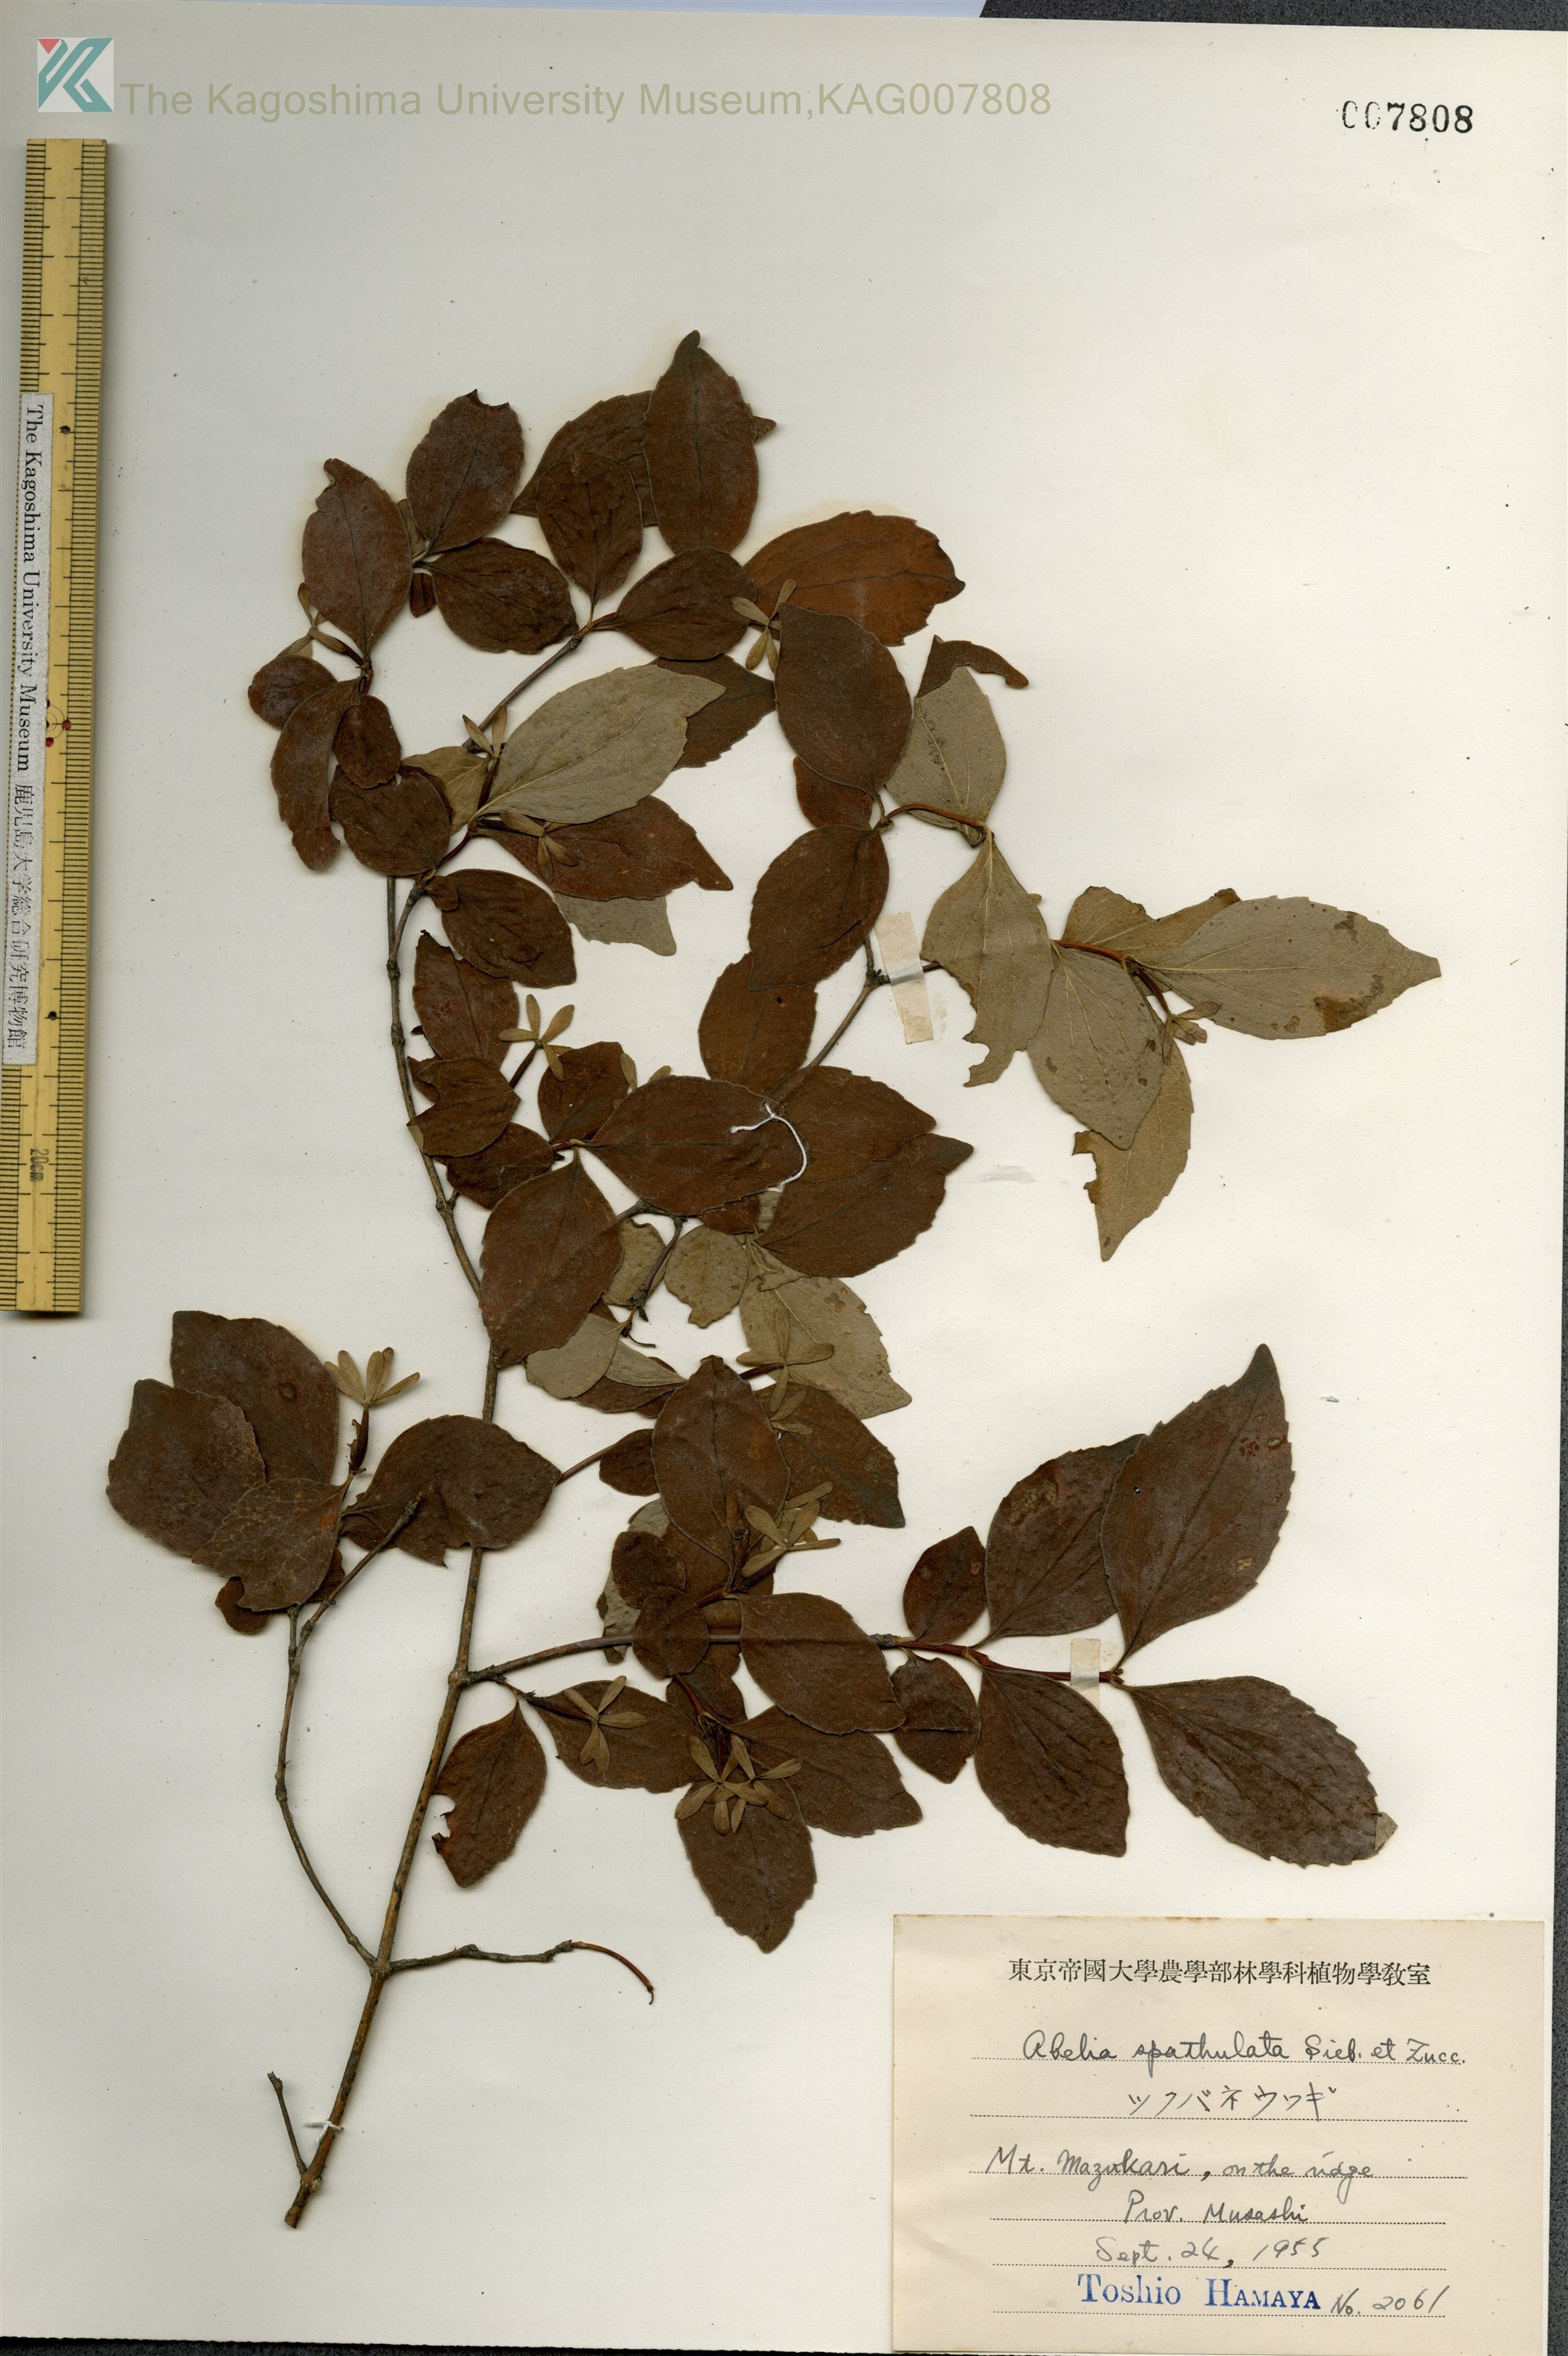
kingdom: Plantae
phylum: Tracheophyta
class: Magnoliopsida
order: Dipsacales
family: Caprifoliaceae
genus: Diabelia
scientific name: Diabelia spathulata
